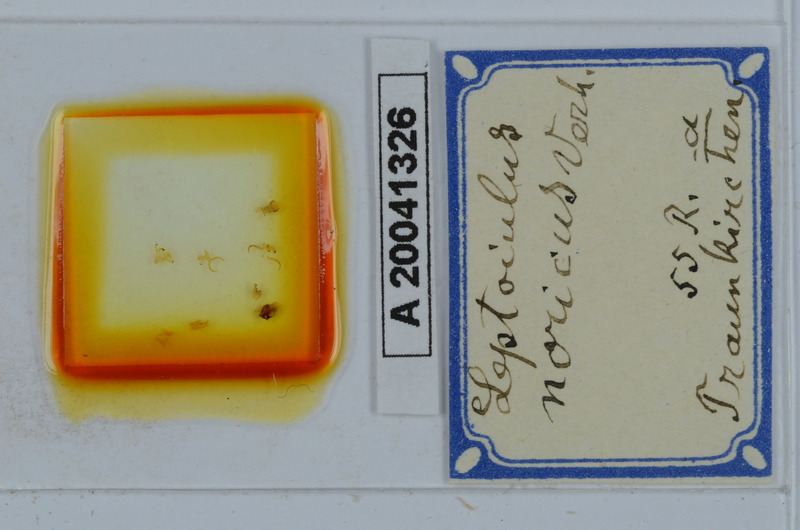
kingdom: Animalia
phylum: Arthropoda
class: Diplopoda
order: Julida
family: Julidae
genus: Leptoiulus
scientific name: Leptoiulus noricus
